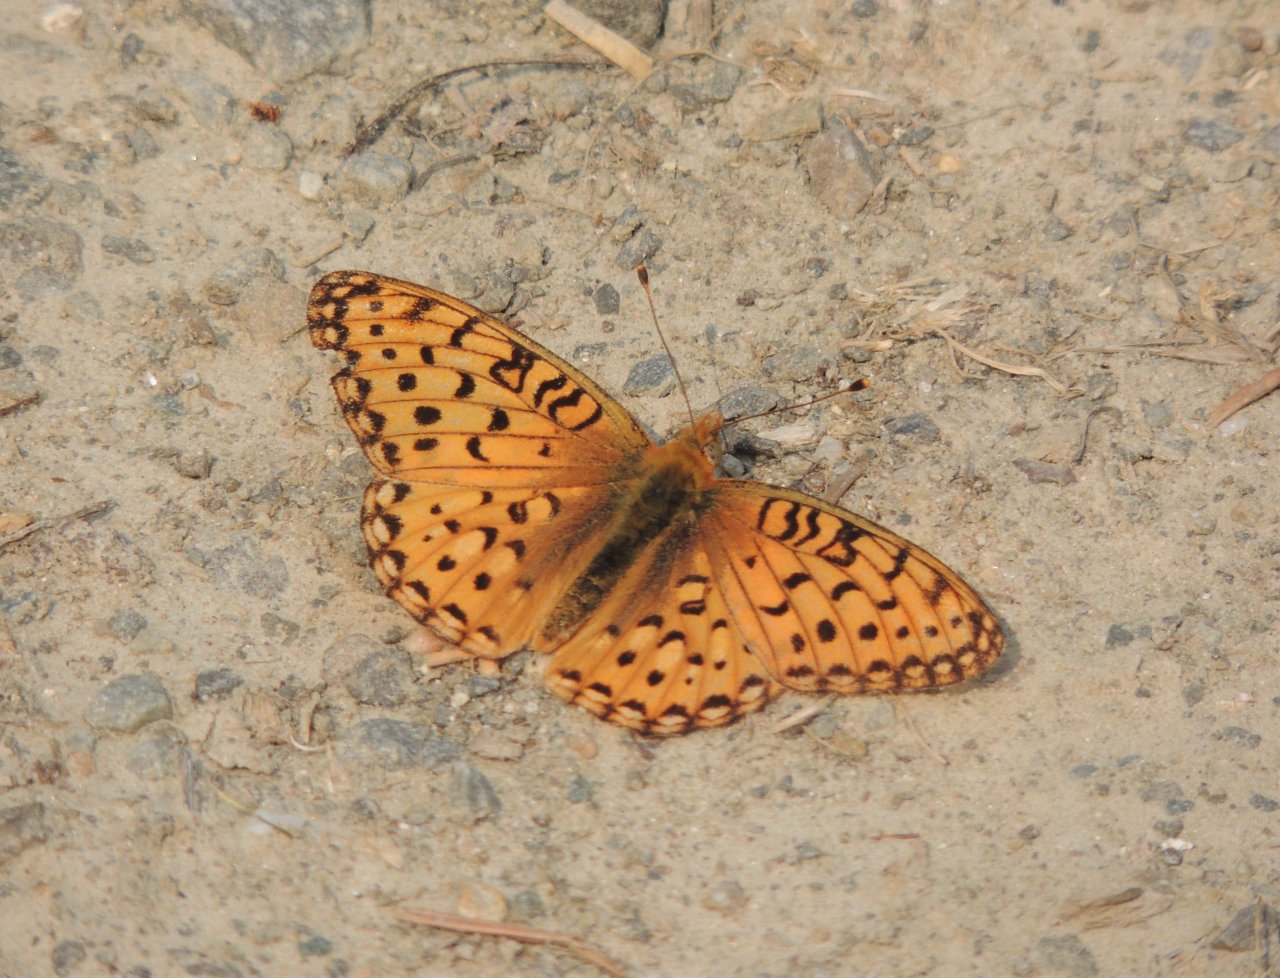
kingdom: Animalia
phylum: Arthropoda
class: Insecta
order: Lepidoptera
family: Nymphalidae
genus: Speyeria
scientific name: Speyeria mormonia
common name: Mormon Fritillary
